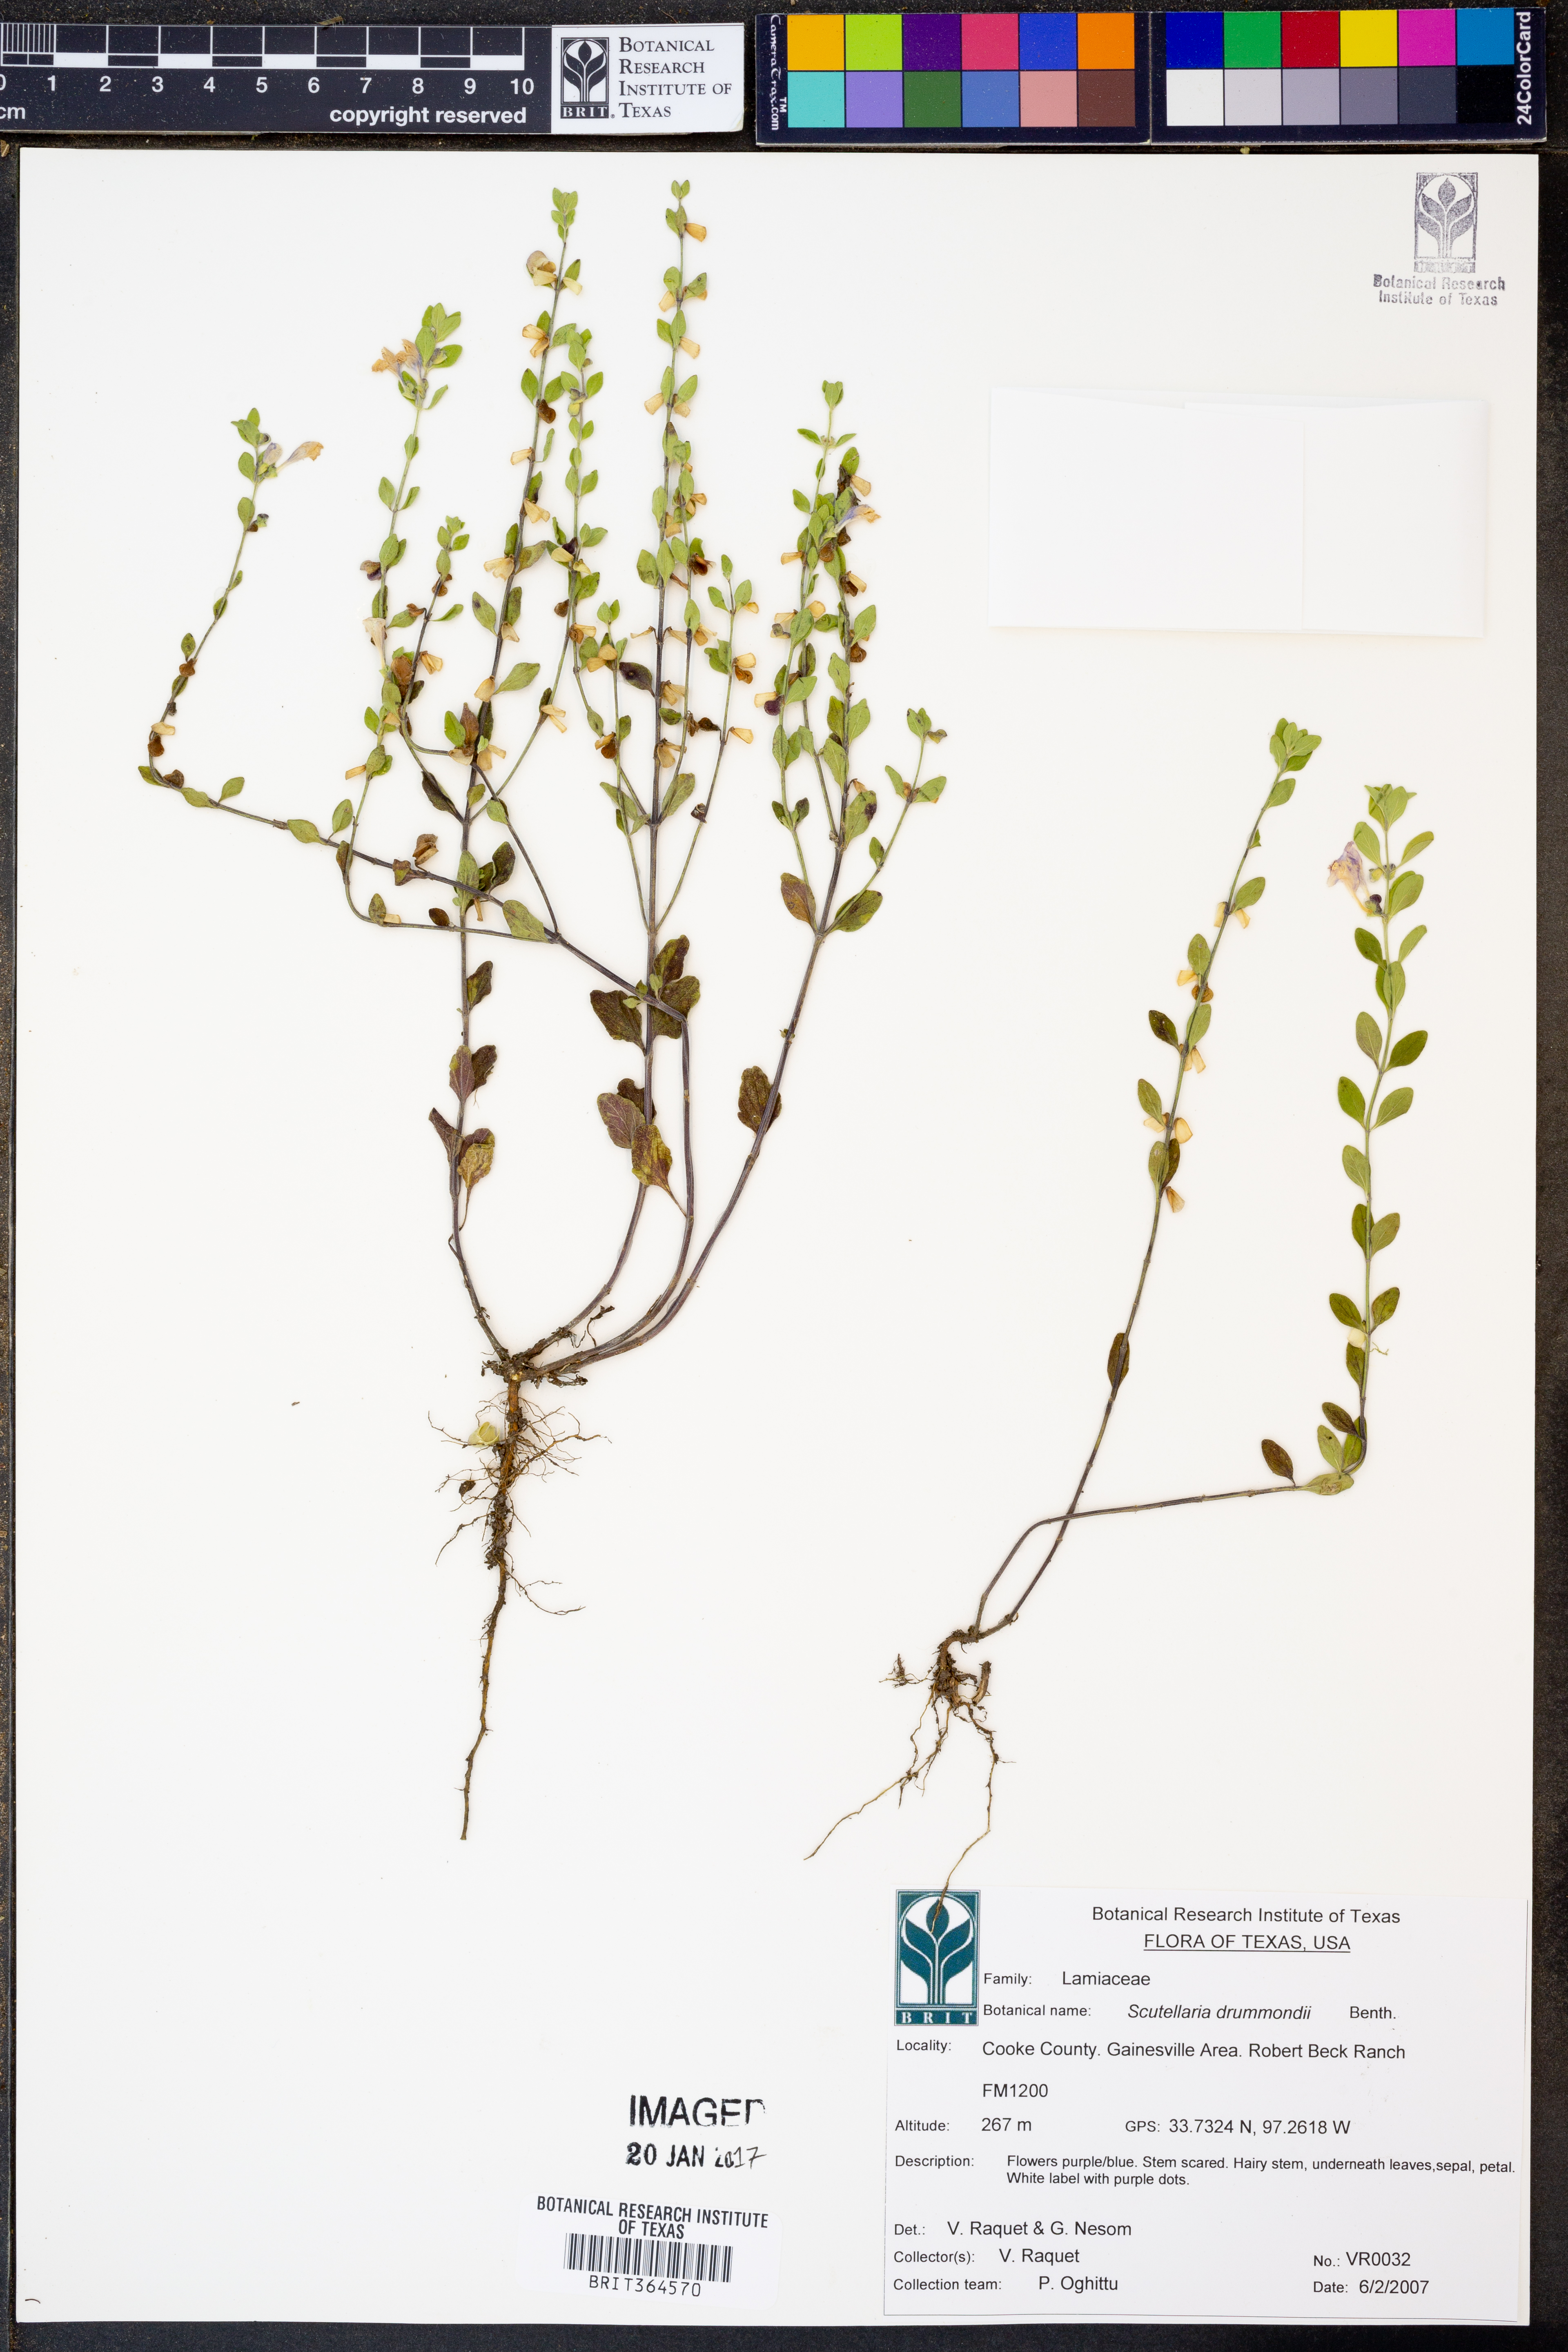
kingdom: Plantae
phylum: Tracheophyta
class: Magnoliopsida
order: Lamiales
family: Lamiaceae
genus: Scutellaria
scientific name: Scutellaria drummondii
